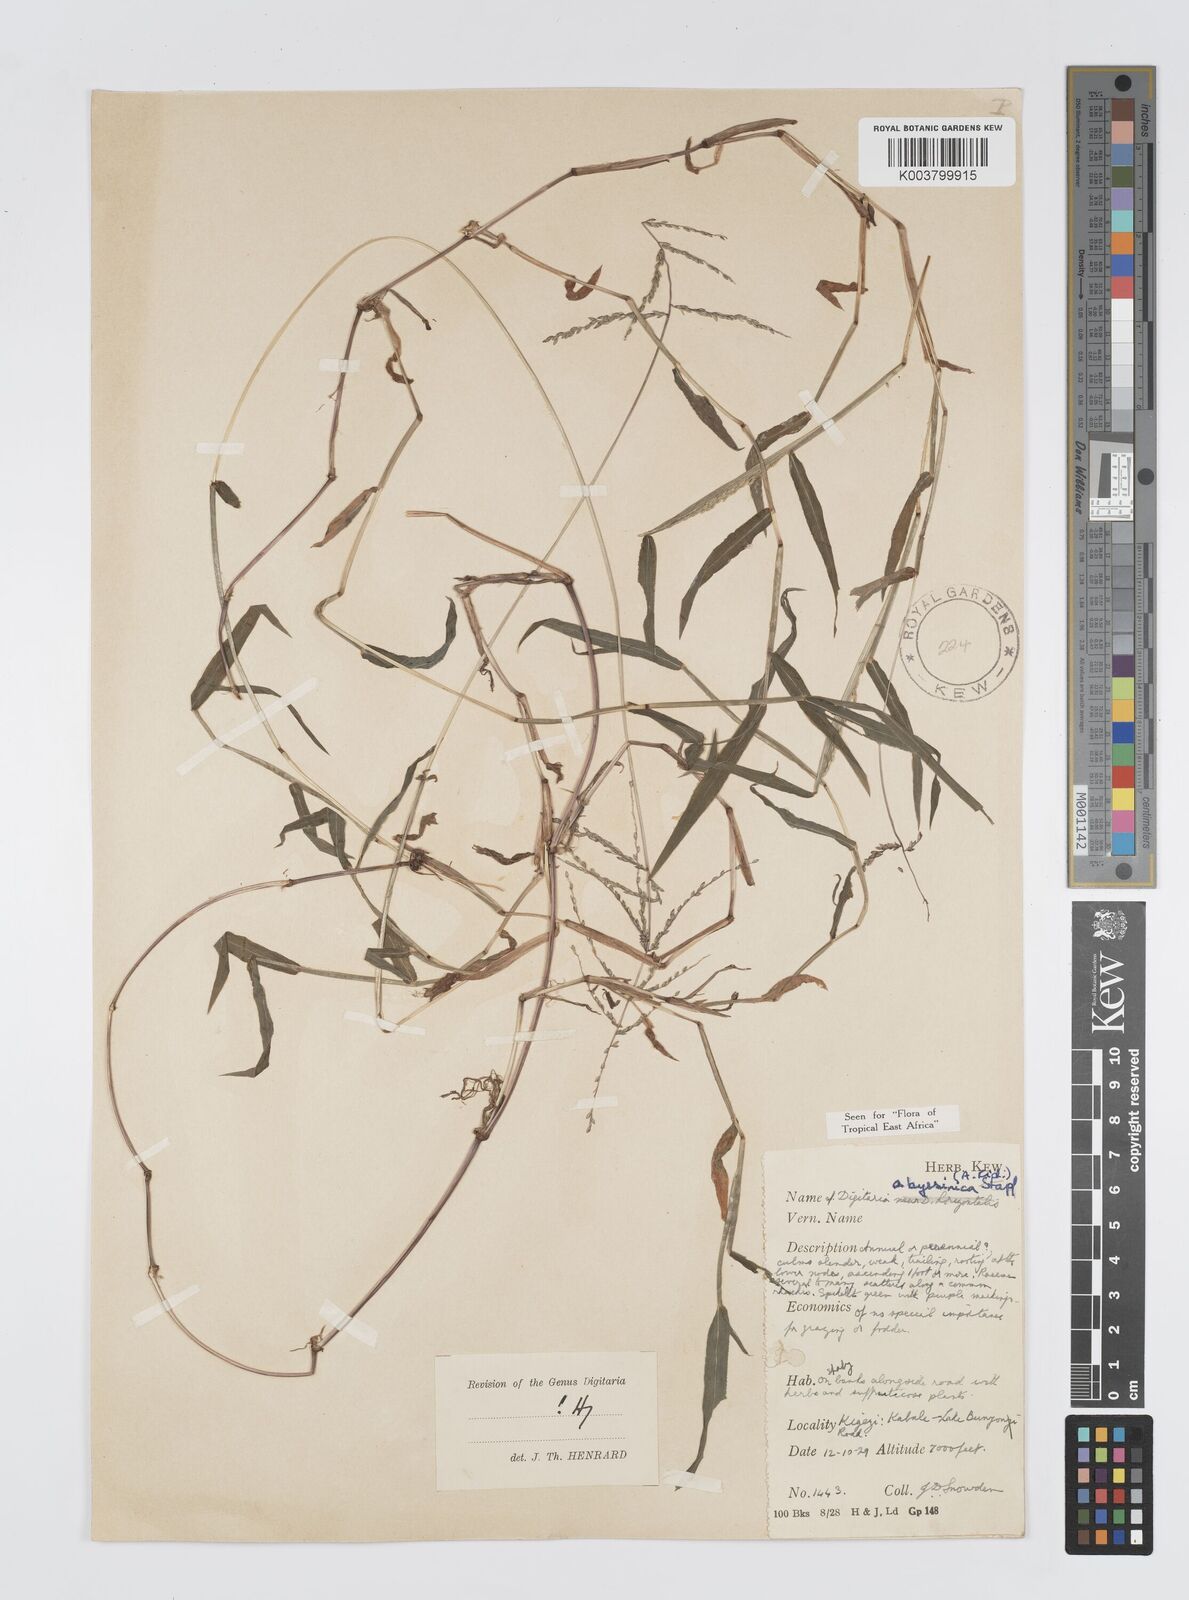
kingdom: Plantae
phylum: Tracheophyta
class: Liliopsida
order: Poales
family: Poaceae
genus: Digitaria
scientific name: Digitaria abyssinica
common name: African couchgrass
